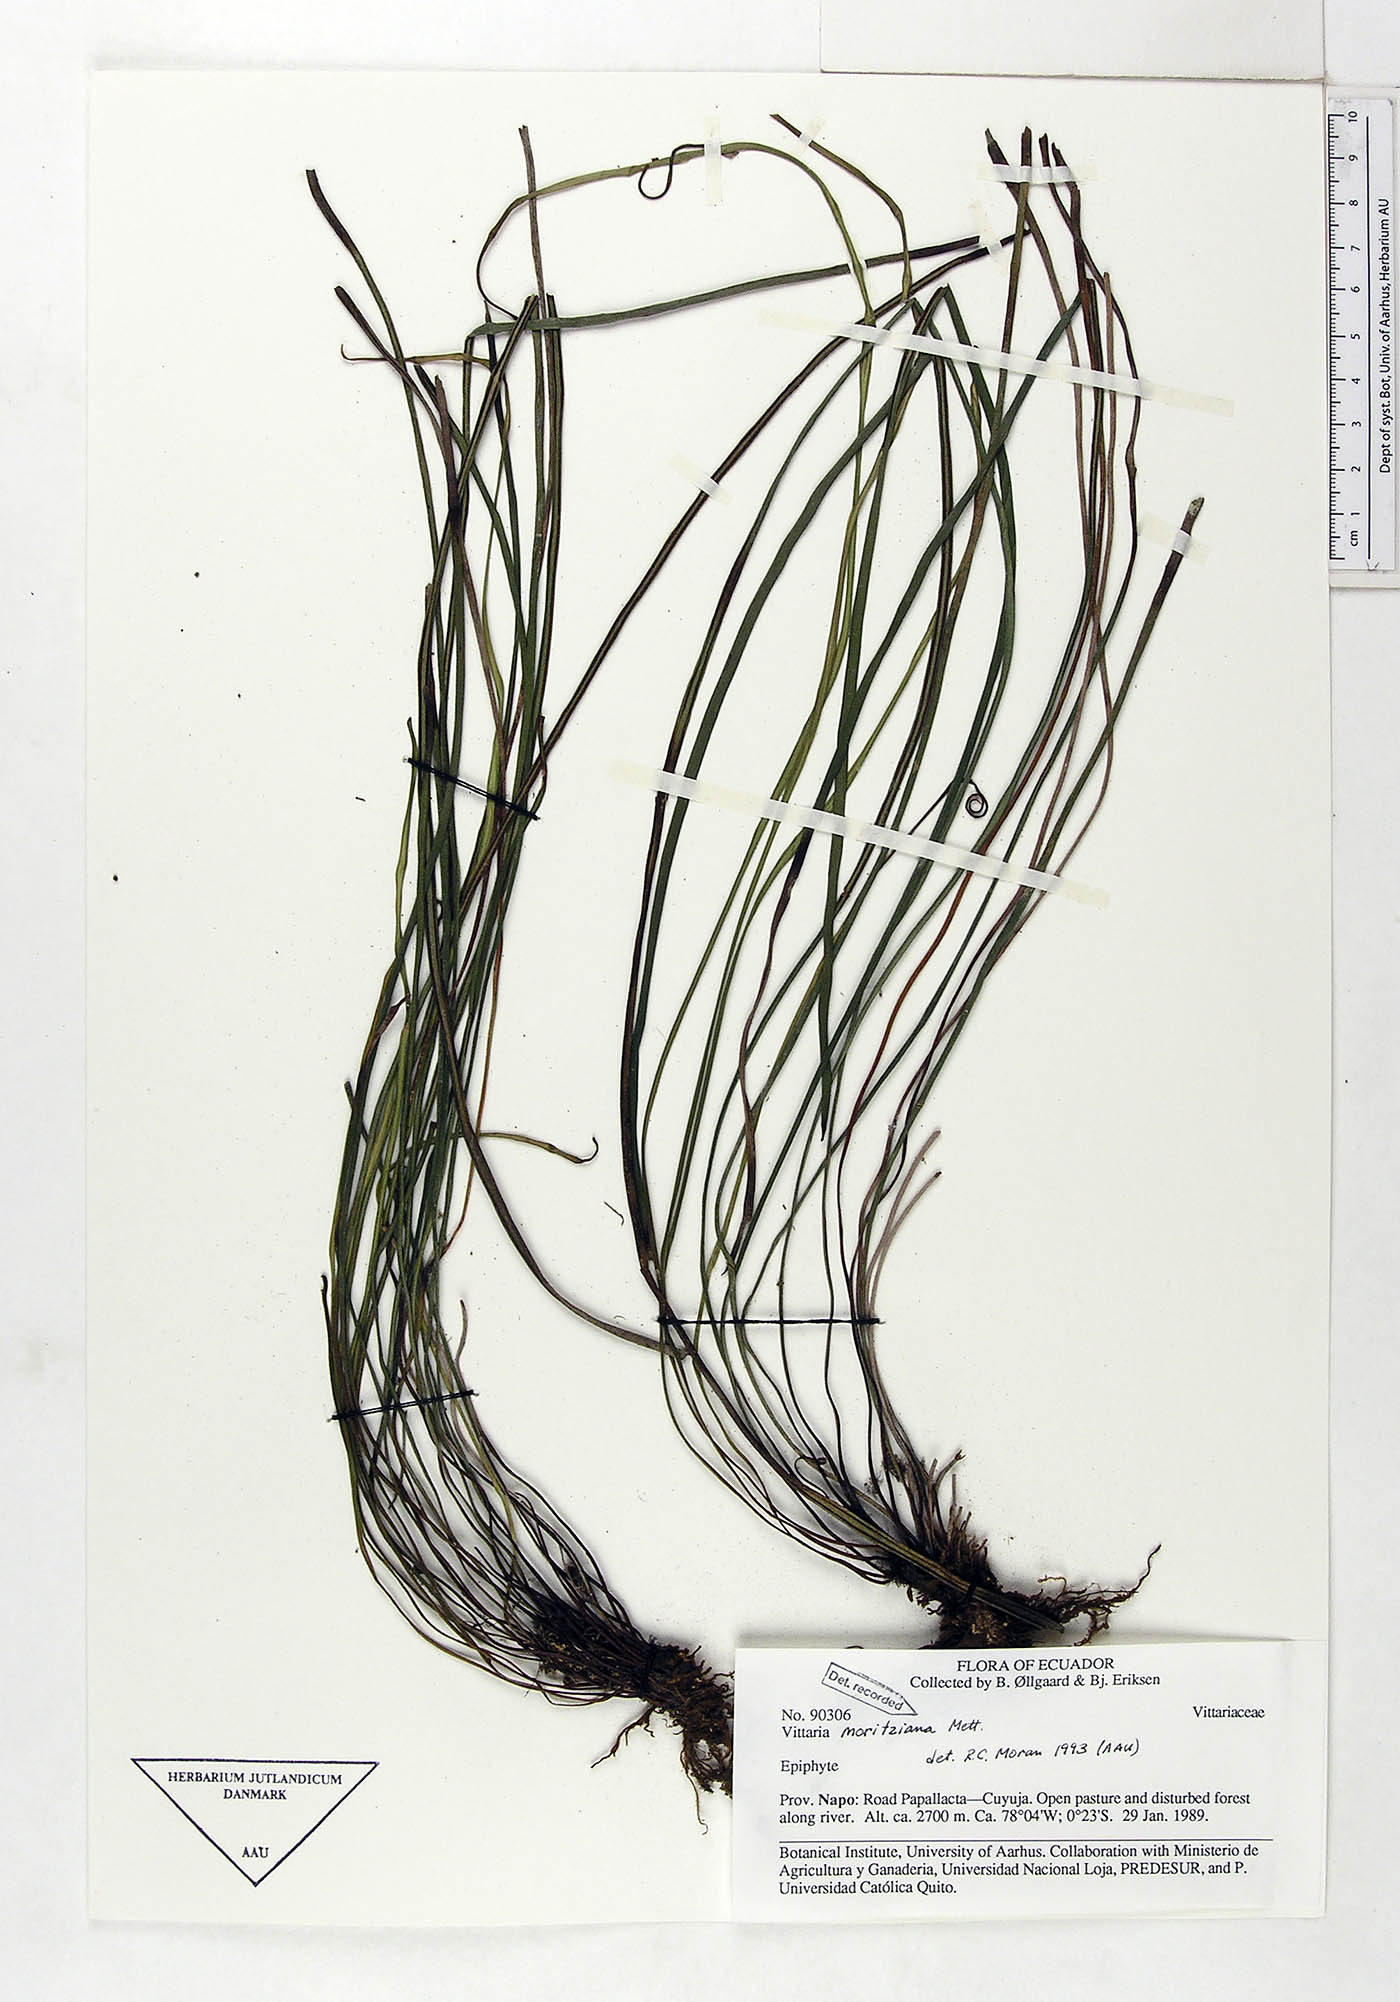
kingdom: Plantae
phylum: Tracheophyta
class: Polypodiopsida
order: Polypodiales
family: Pteridaceae
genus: Radiovittaria
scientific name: Radiovittaria moritziana
